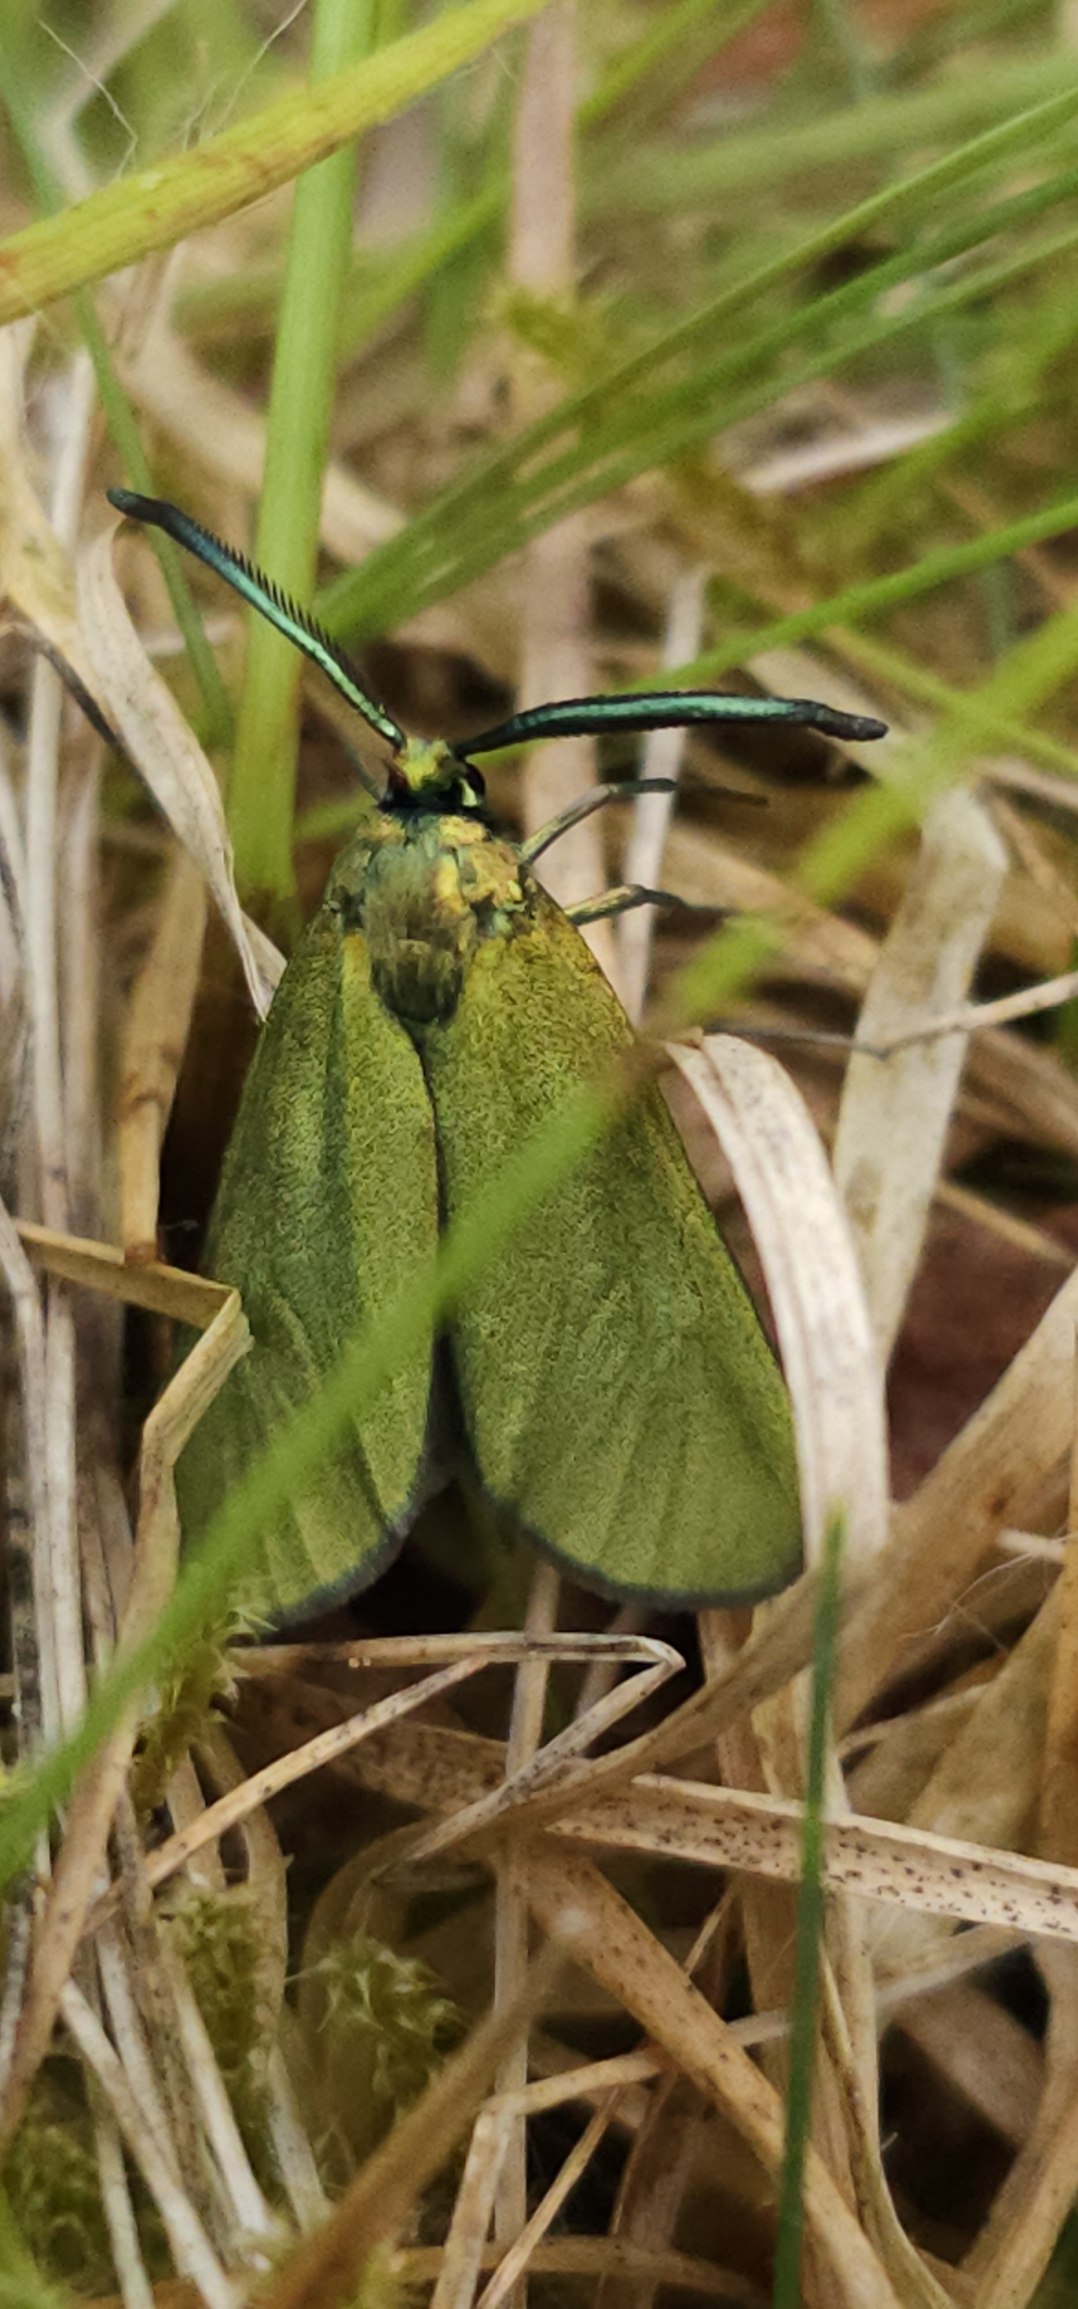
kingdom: Animalia
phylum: Arthropoda
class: Insecta
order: Lepidoptera
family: Zygaenidae
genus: Adscita
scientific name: Adscita statices
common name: Metalvinge
